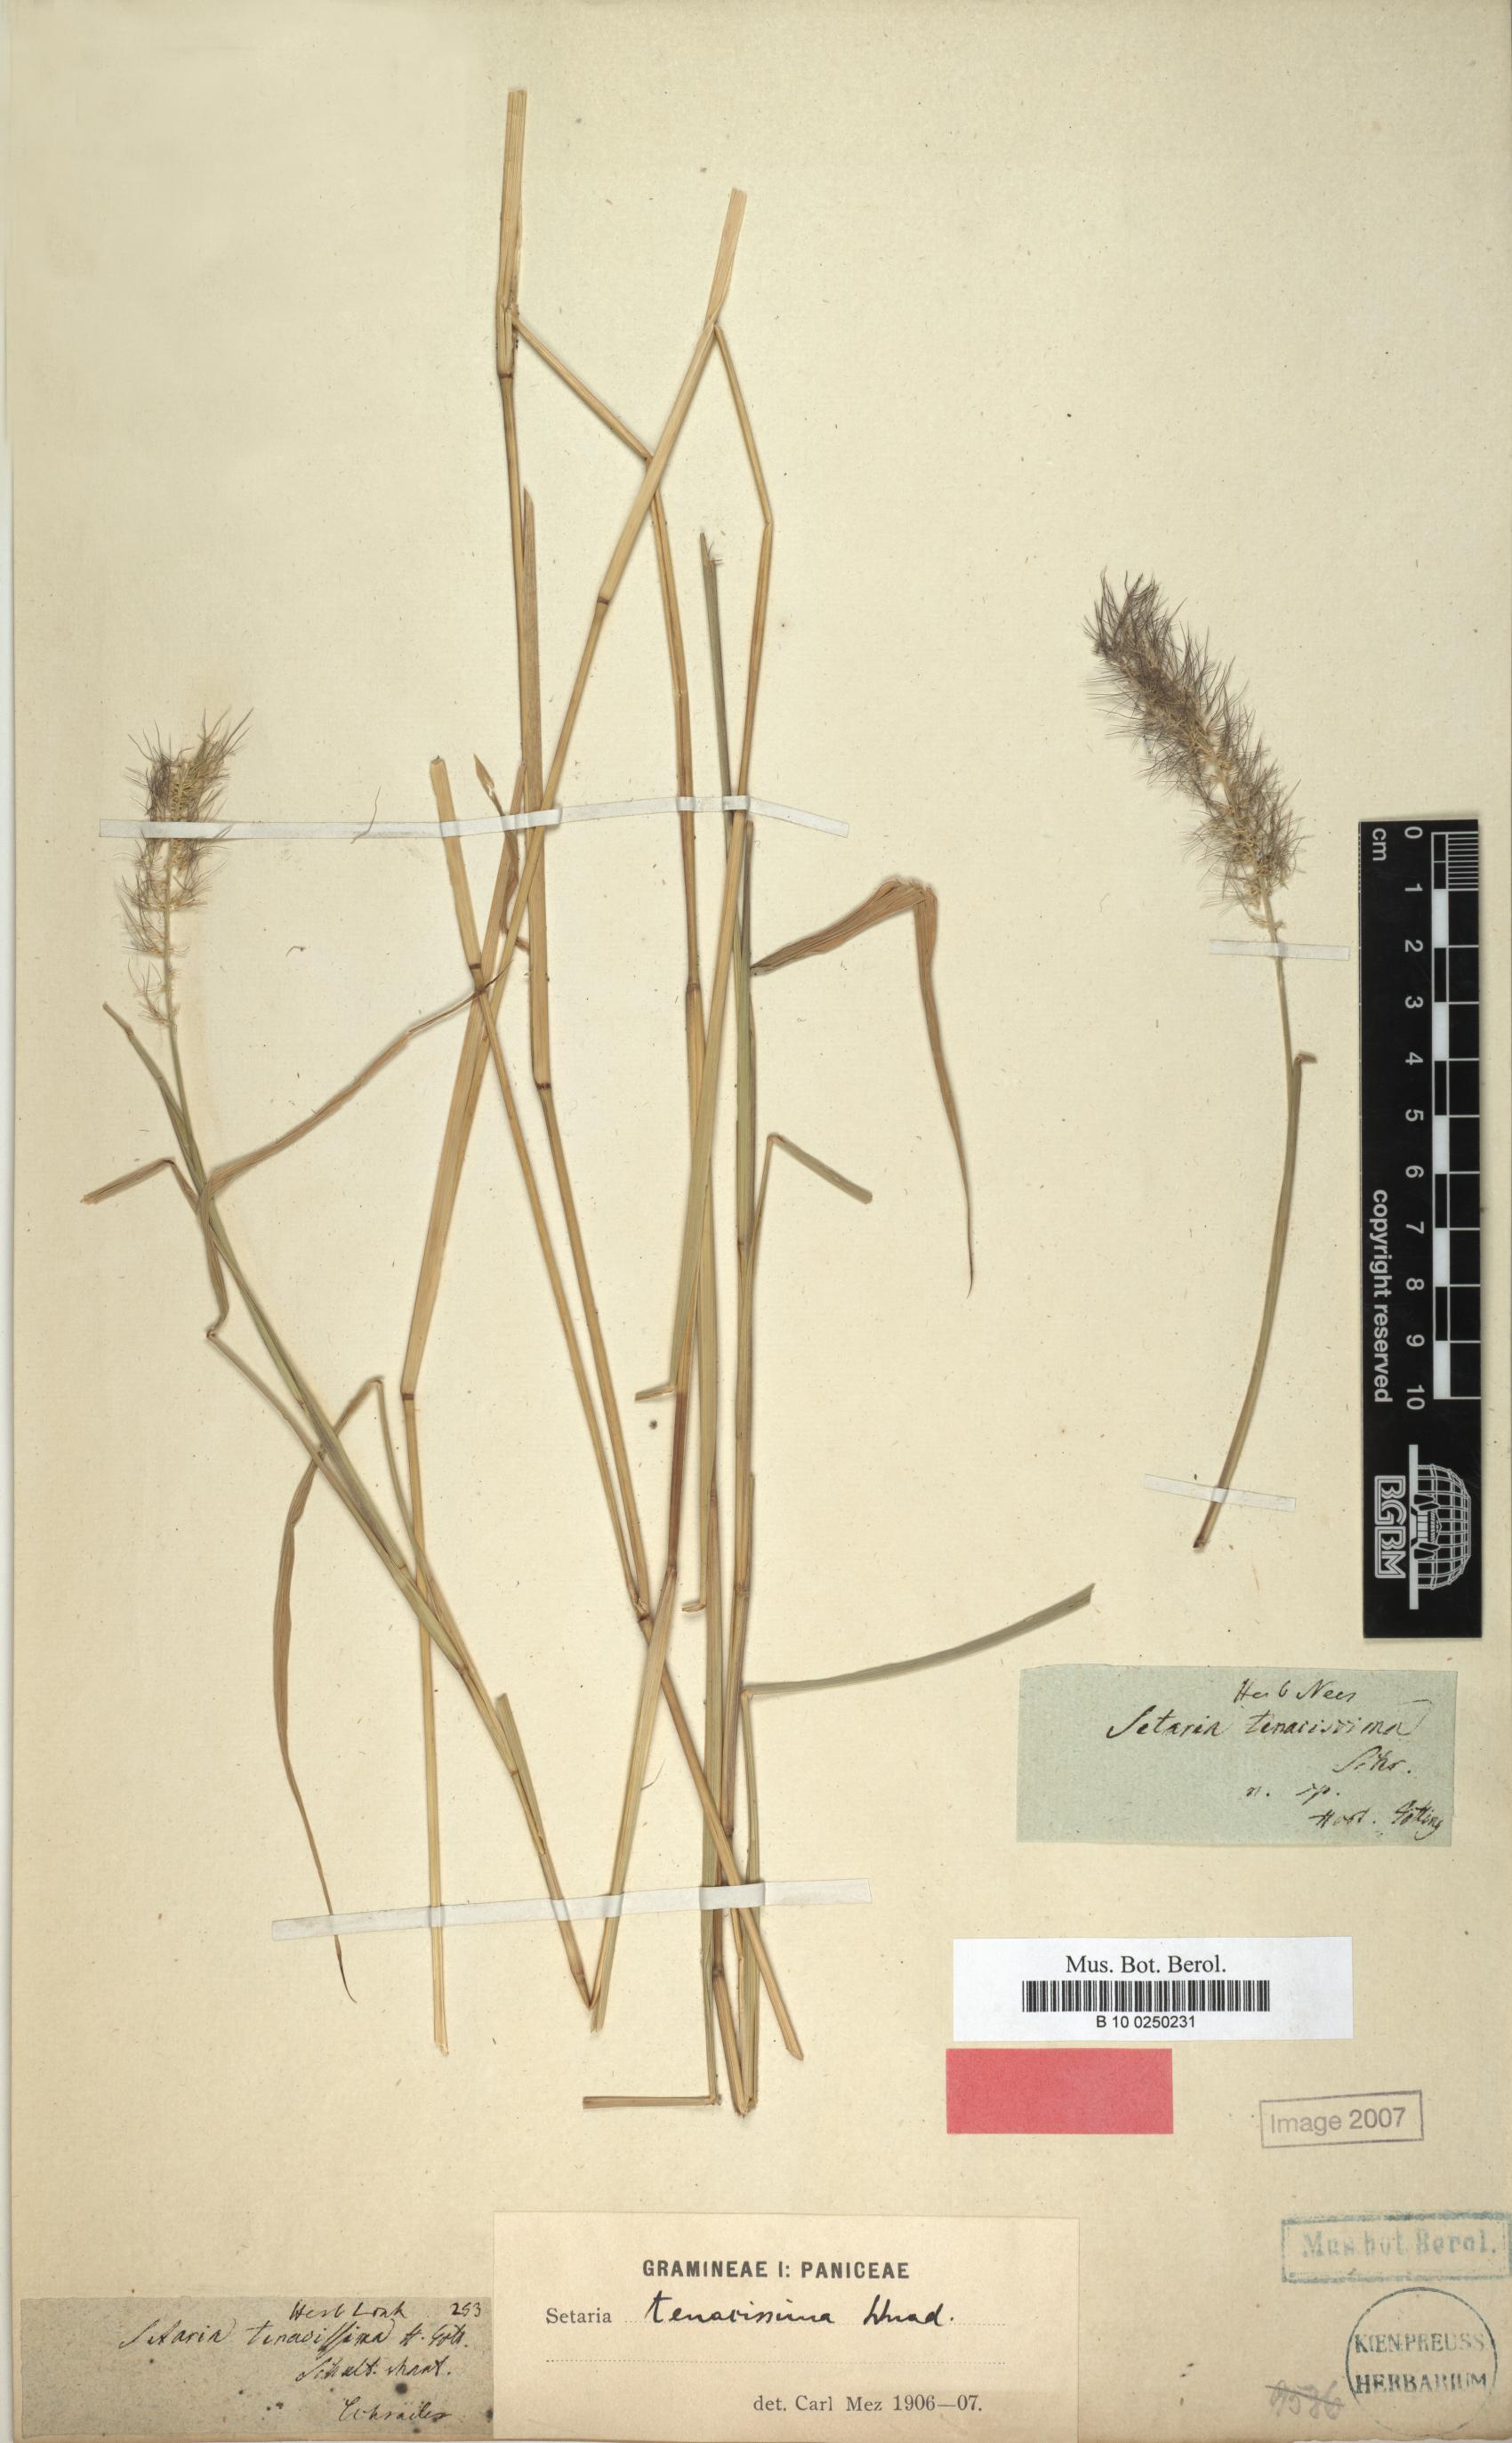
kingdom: Plantae
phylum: Tracheophyta
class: Liliopsida
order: Poales
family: Poaceae
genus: Setaria
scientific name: Setaria tenacissima
